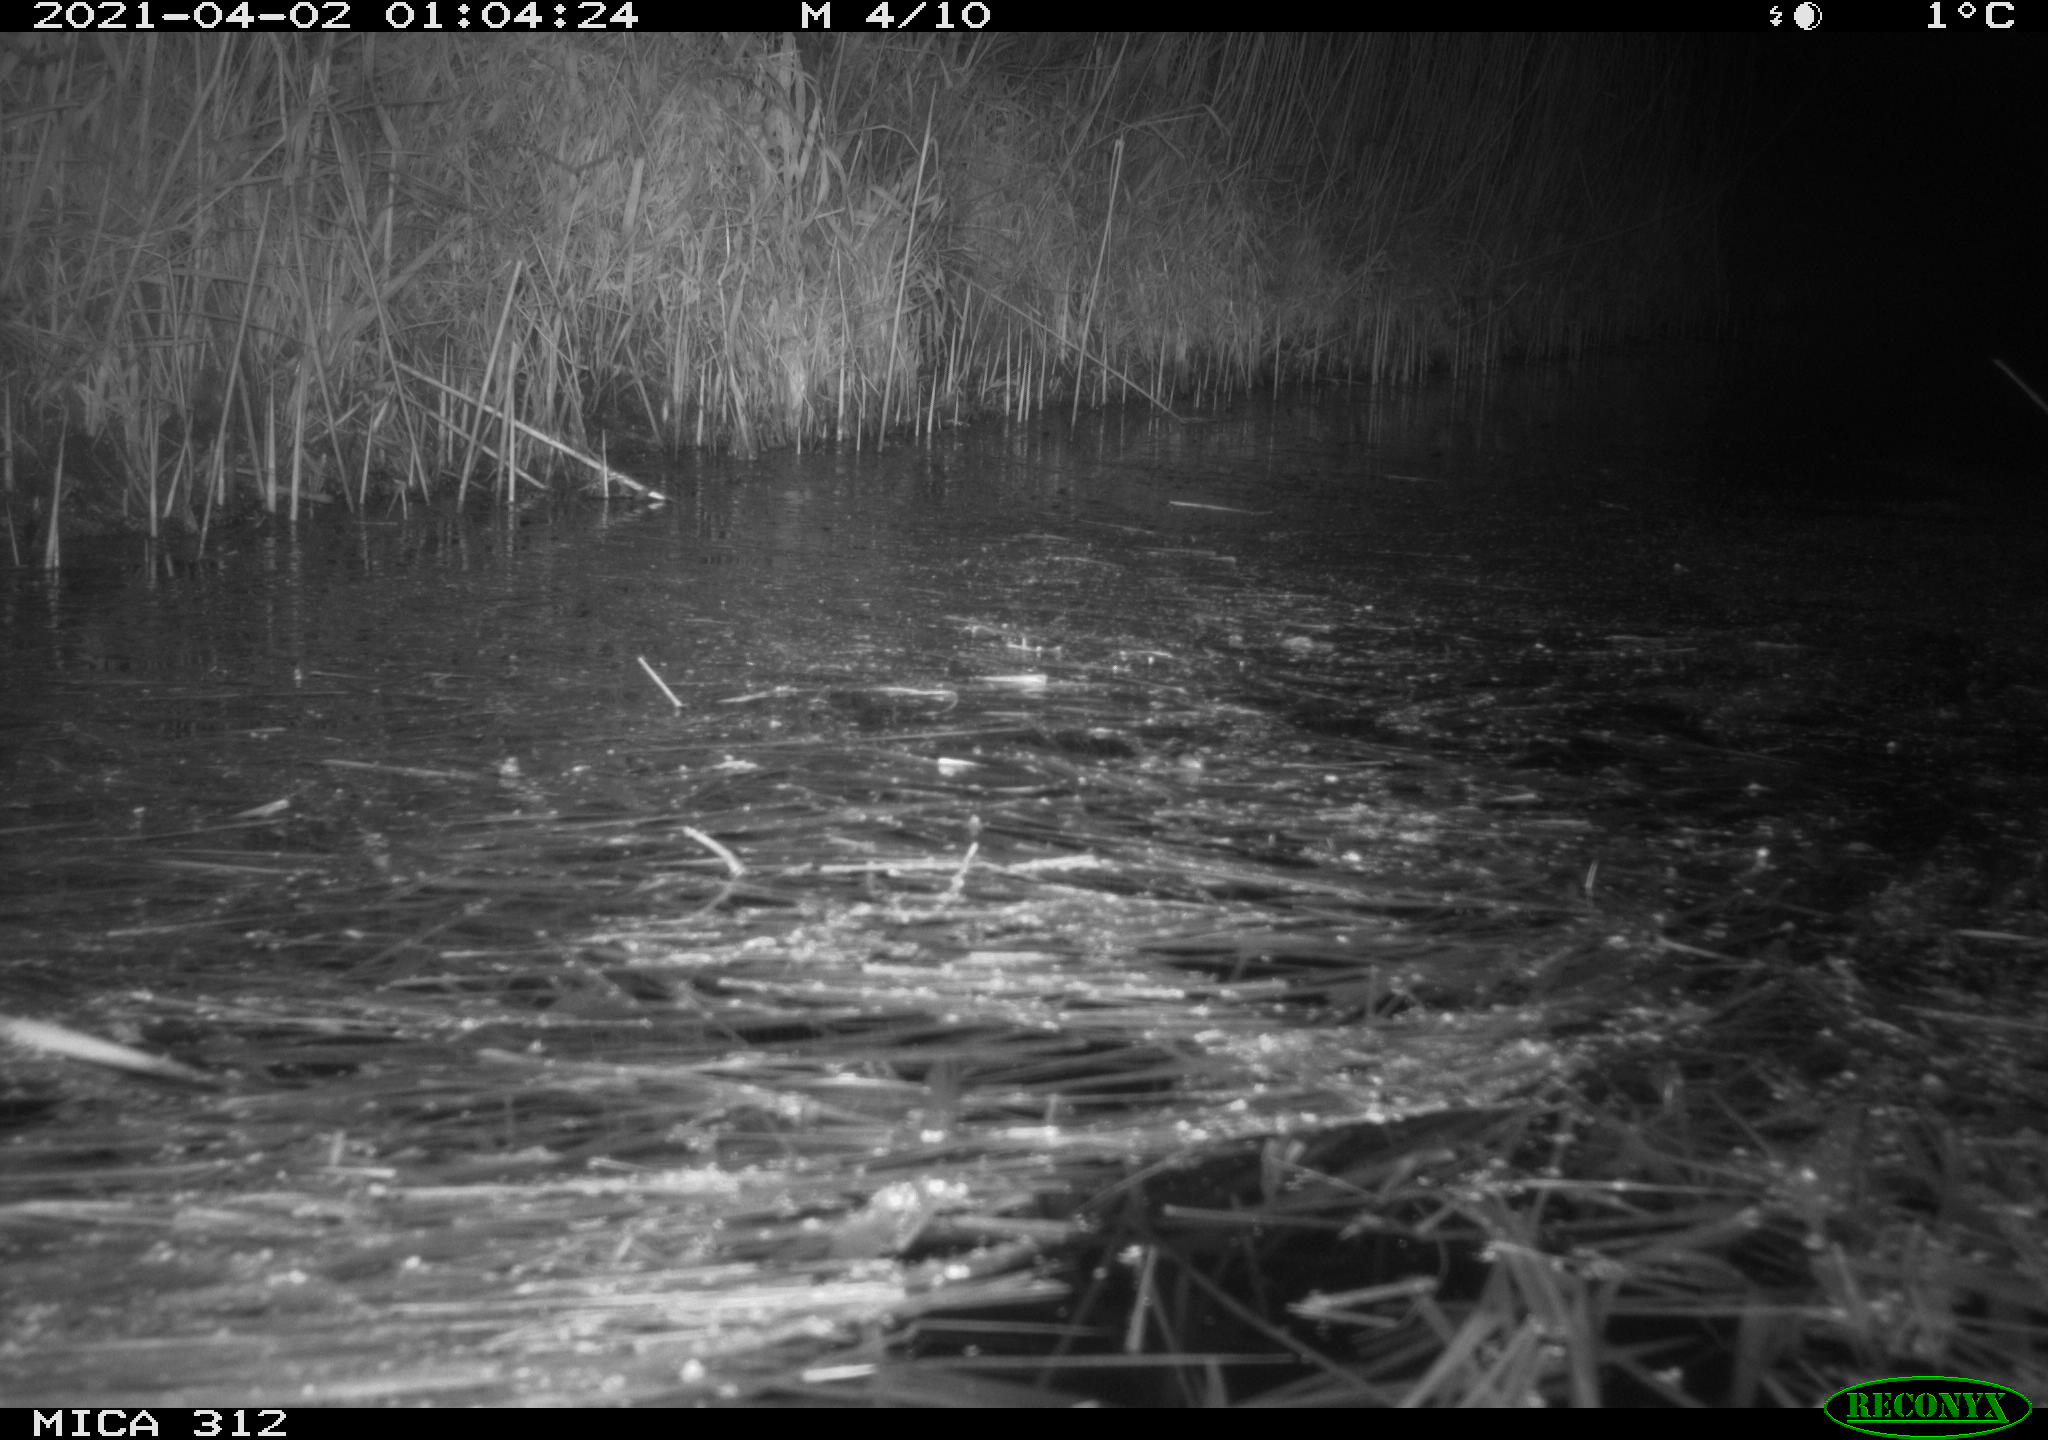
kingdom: Animalia
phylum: Chordata
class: Mammalia
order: Rodentia
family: Cricetidae
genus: Ondatra
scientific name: Ondatra zibethicus
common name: Muskrat
